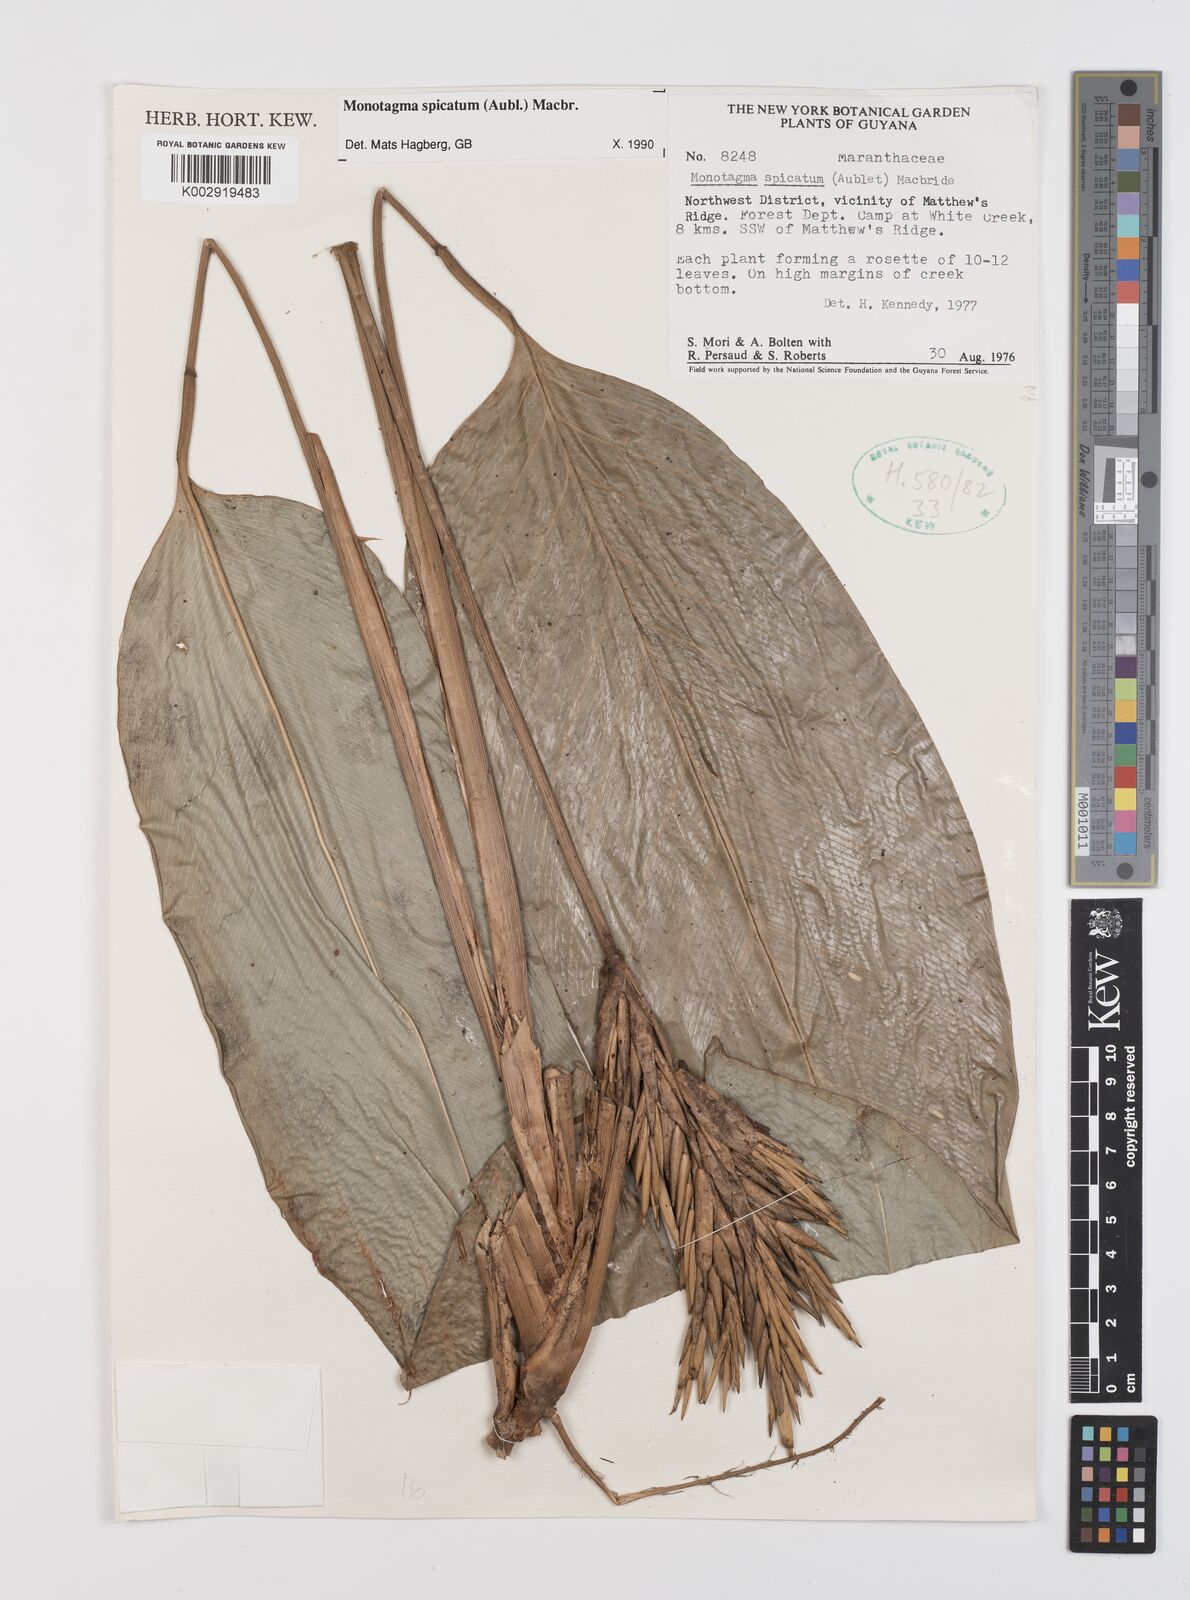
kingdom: Plantae
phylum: Tracheophyta
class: Liliopsida
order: Zingiberales
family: Marantaceae
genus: Monotagma
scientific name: Monotagma spicatum
